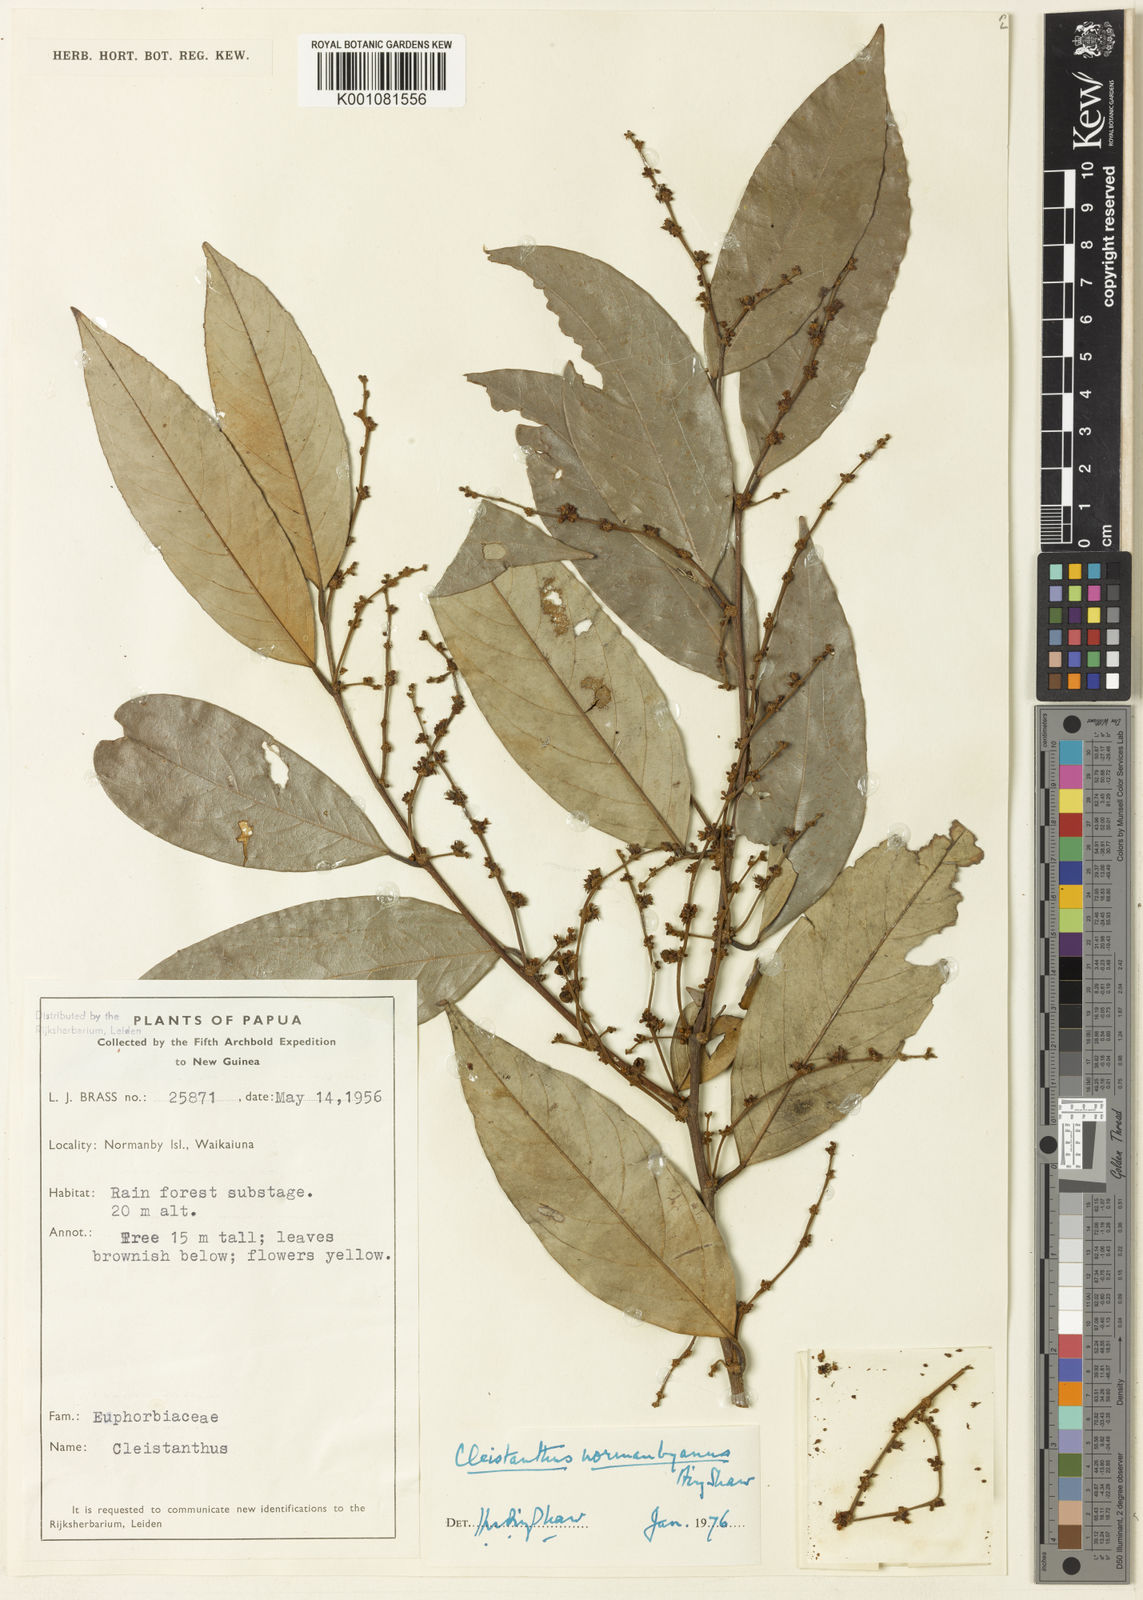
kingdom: Plantae
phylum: Tracheophyta
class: Magnoliopsida
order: Malpighiales
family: Phyllanthaceae
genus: Cleistanthus
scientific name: Cleistanthus normanbyanus
